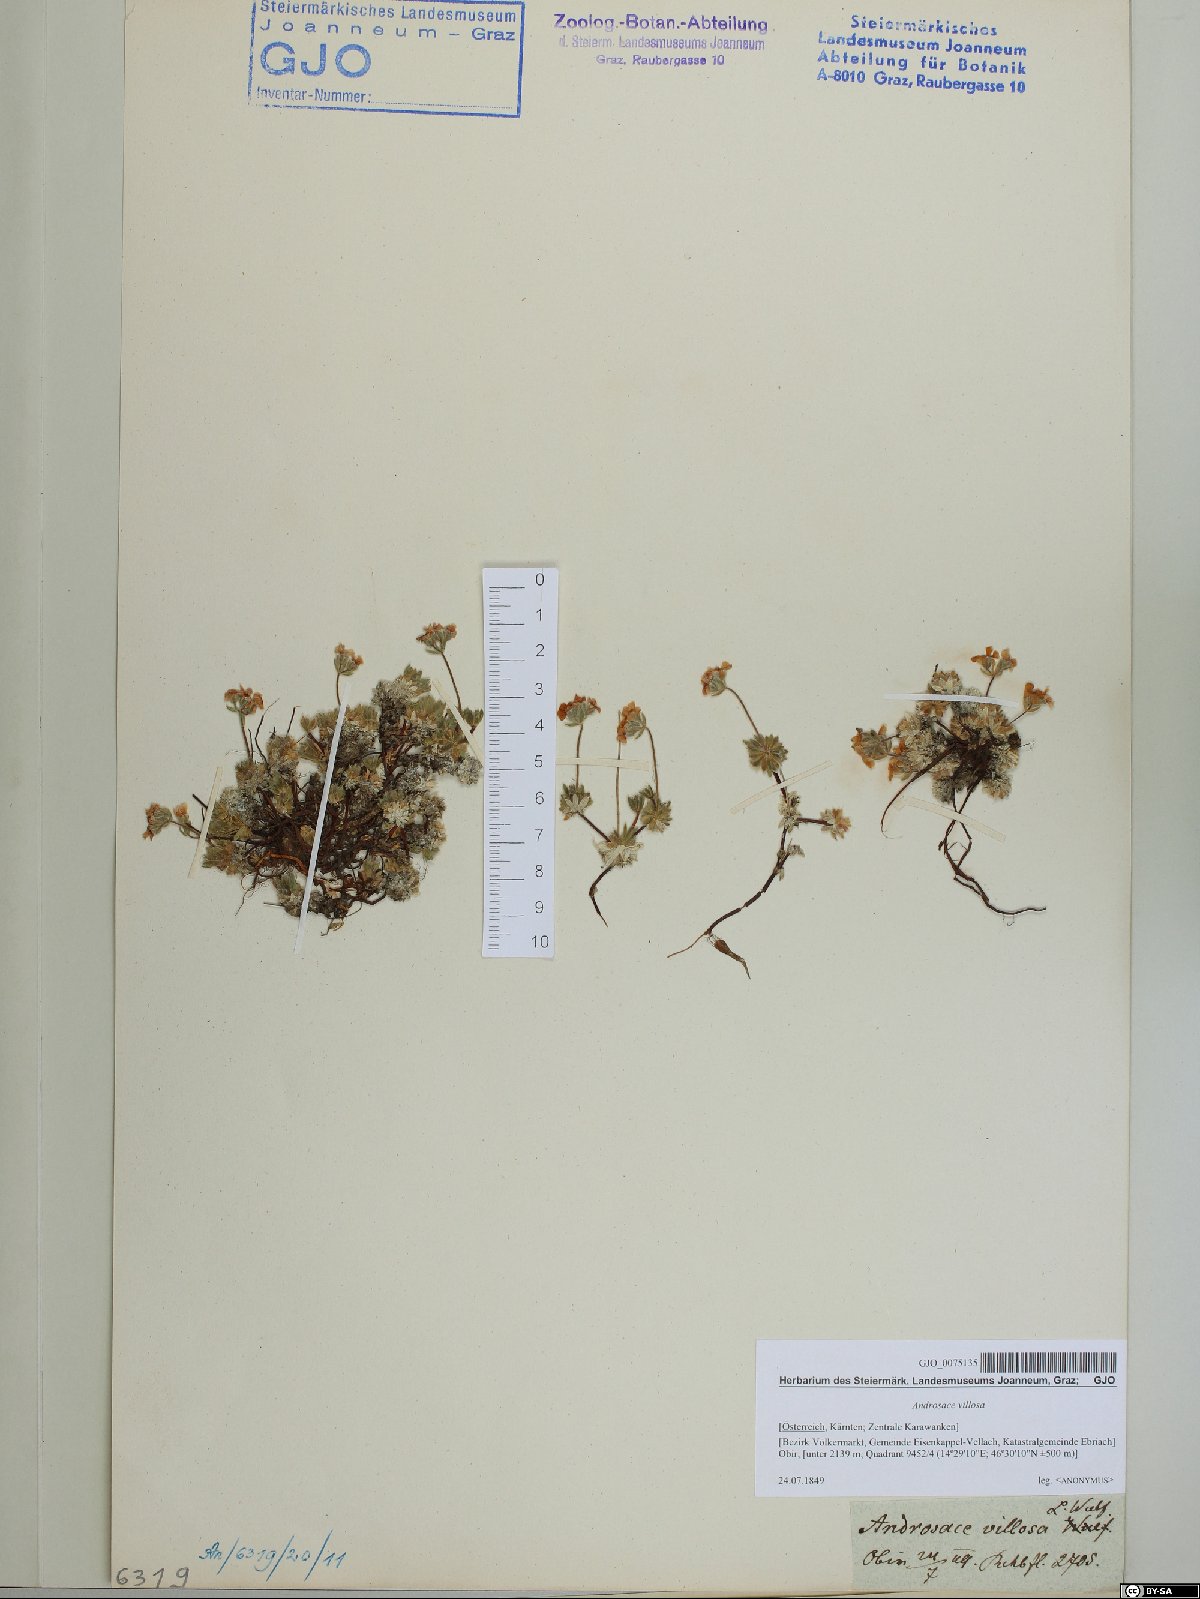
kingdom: Plantae
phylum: Tracheophyta
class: Magnoliopsida
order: Ericales
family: Primulaceae
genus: Androsace
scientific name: Androsace villosa
